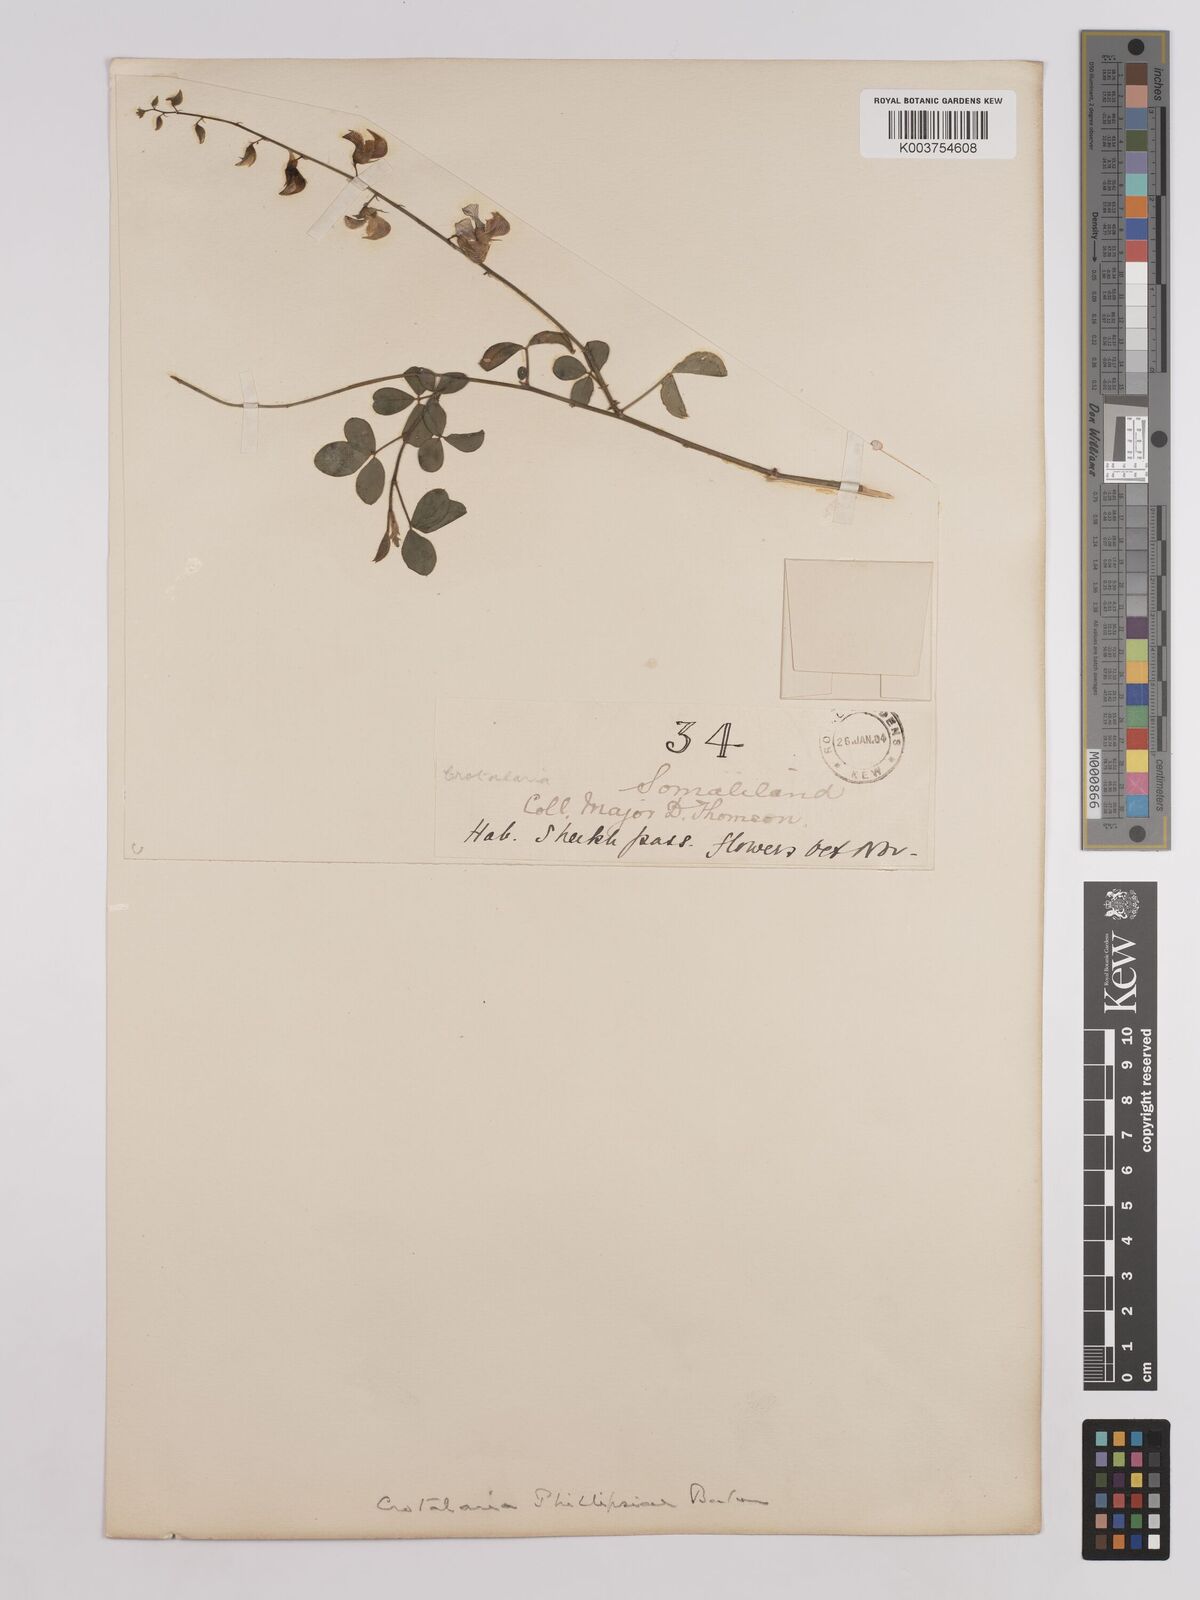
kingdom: Plantae
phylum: Tracheophyta
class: Magnoliopsida
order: Fabales
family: Fabaceae
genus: Crotalaria
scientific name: Crotalaria phillipsiae
